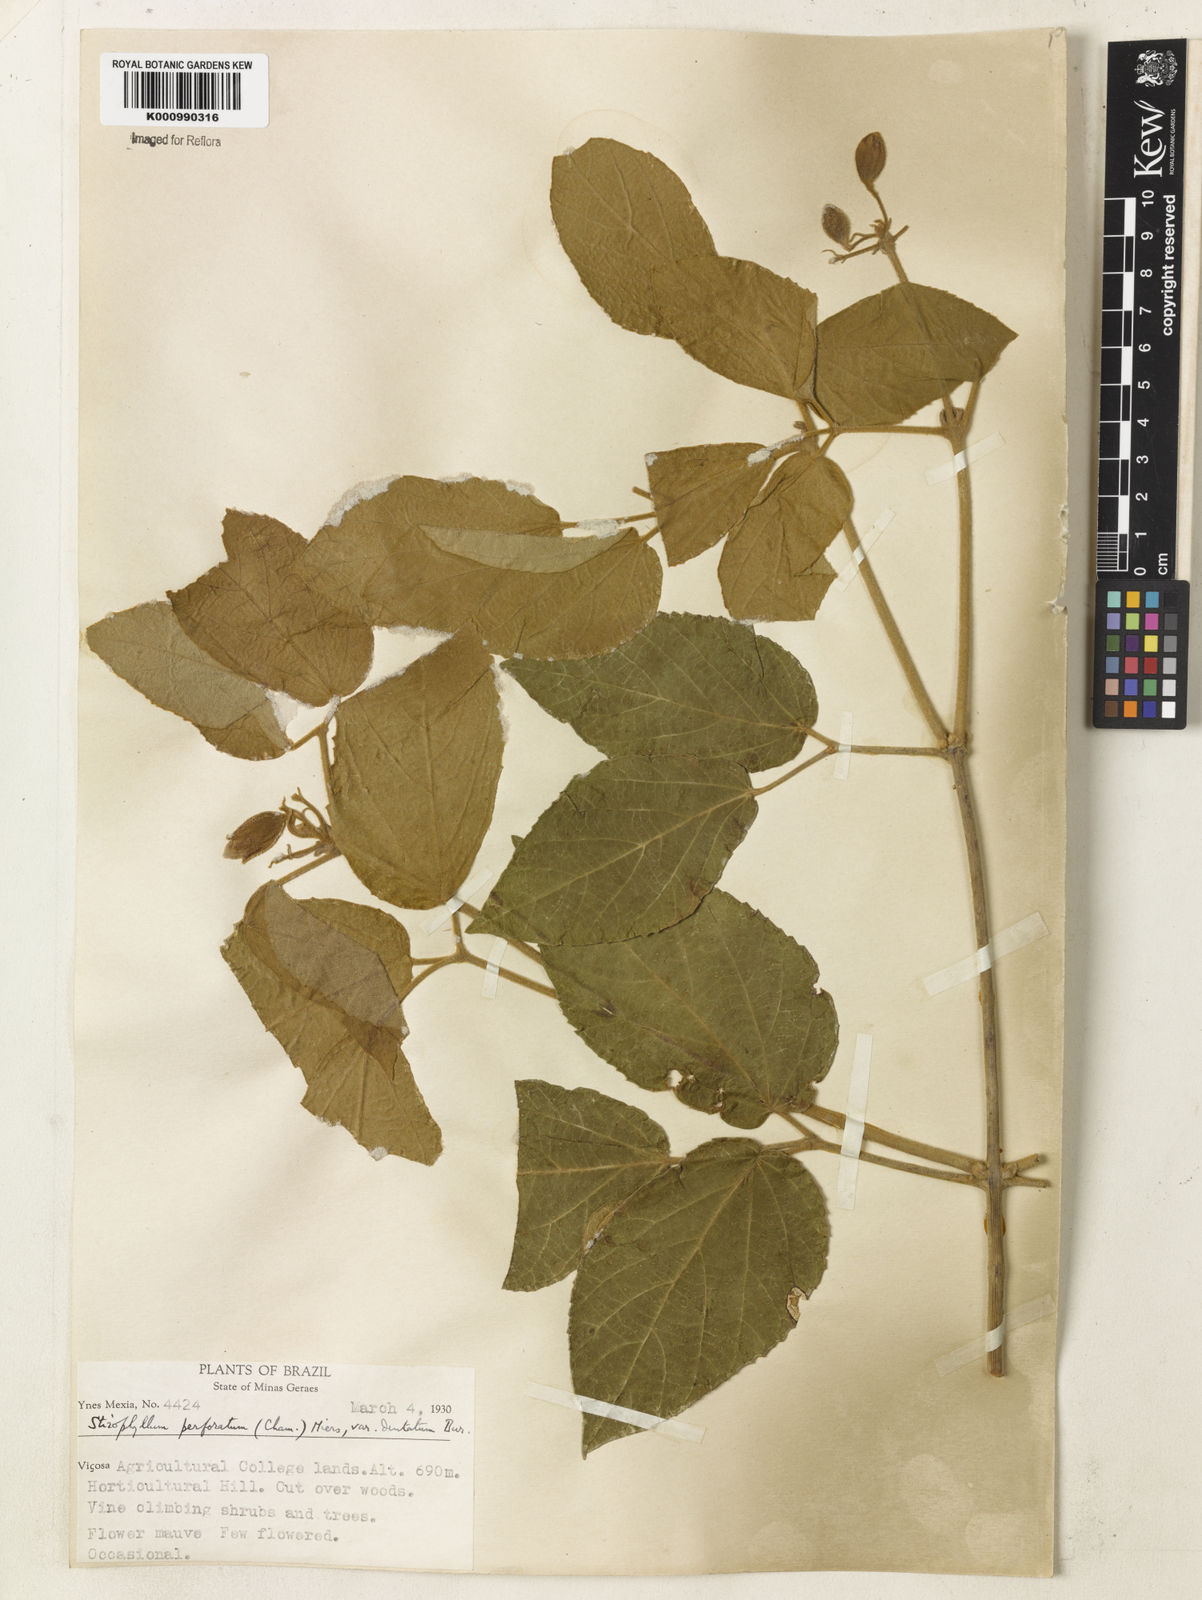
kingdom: Plantae
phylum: Tracheophyta
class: Magnoliopsida
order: Lamiales
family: Bignoniaceae
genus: Stizophyllum
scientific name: Stizophyllum perforatum
